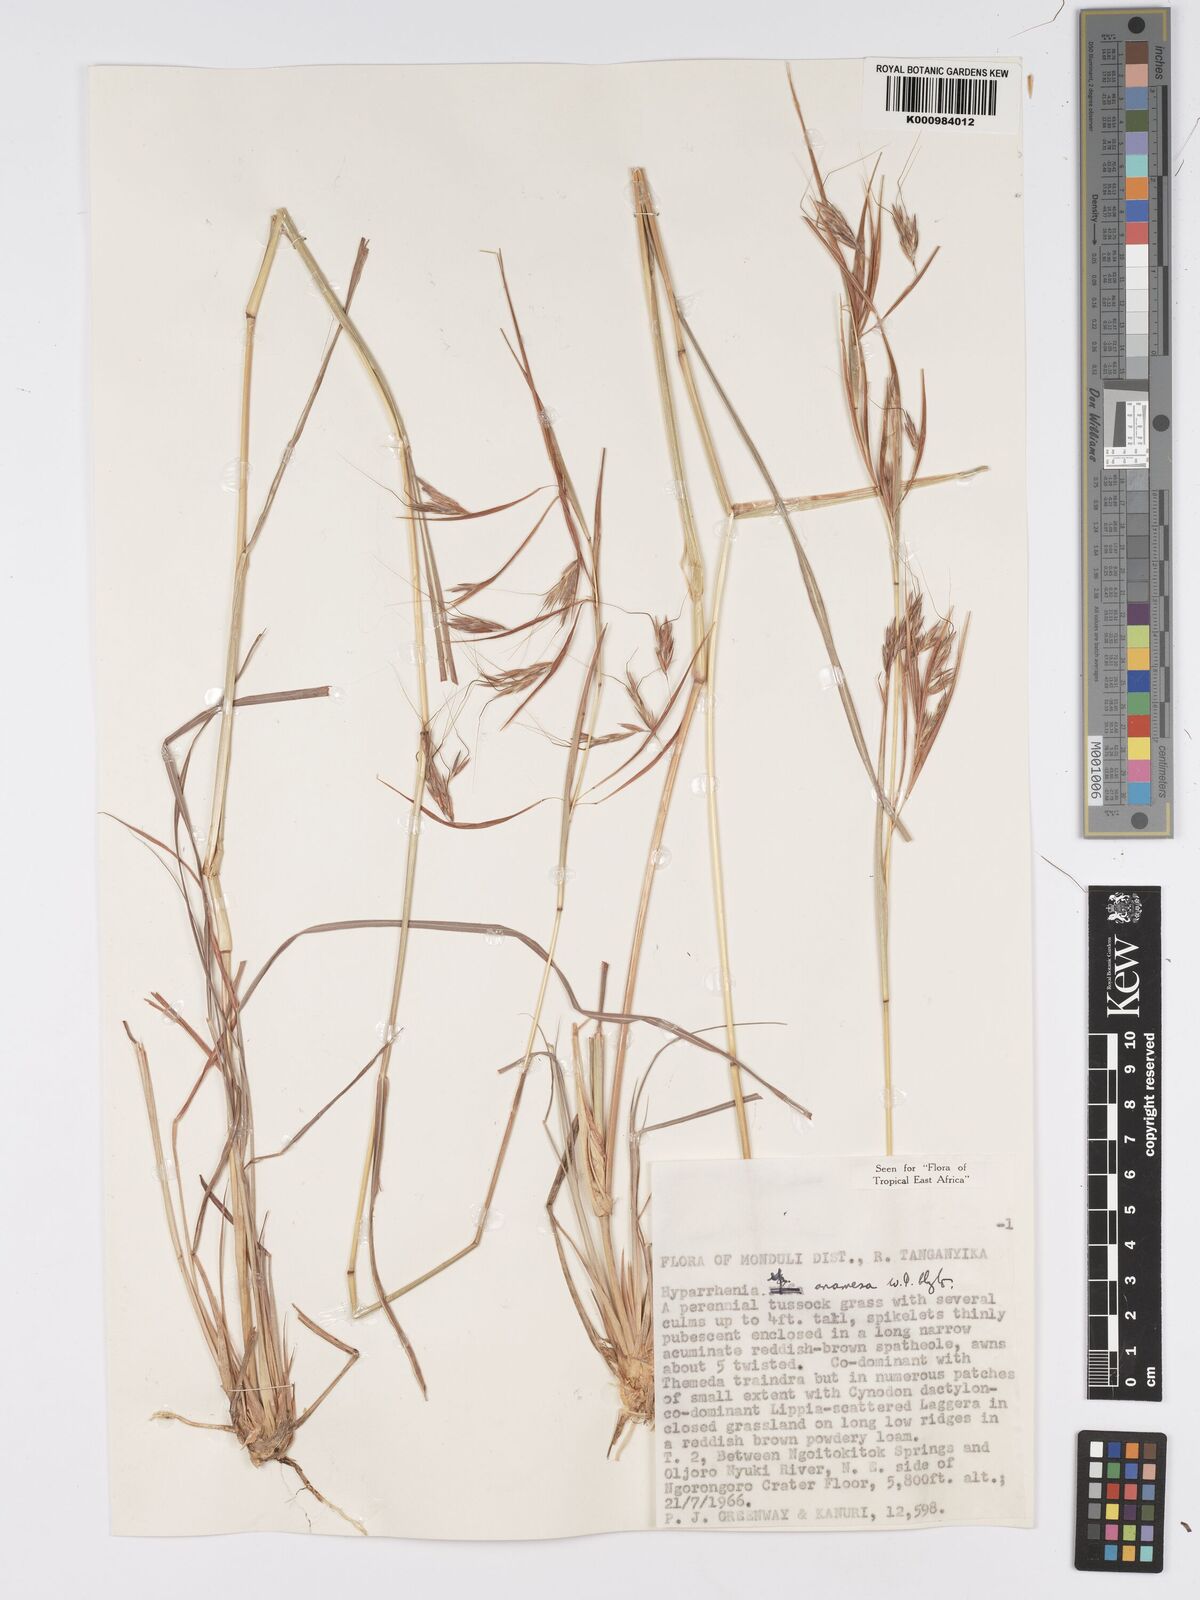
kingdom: Plantae
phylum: Tracheophyta
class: Liliopsida
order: Poales
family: Poaceae
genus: Hyparrhenia
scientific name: Hyparrhenia anamesa
